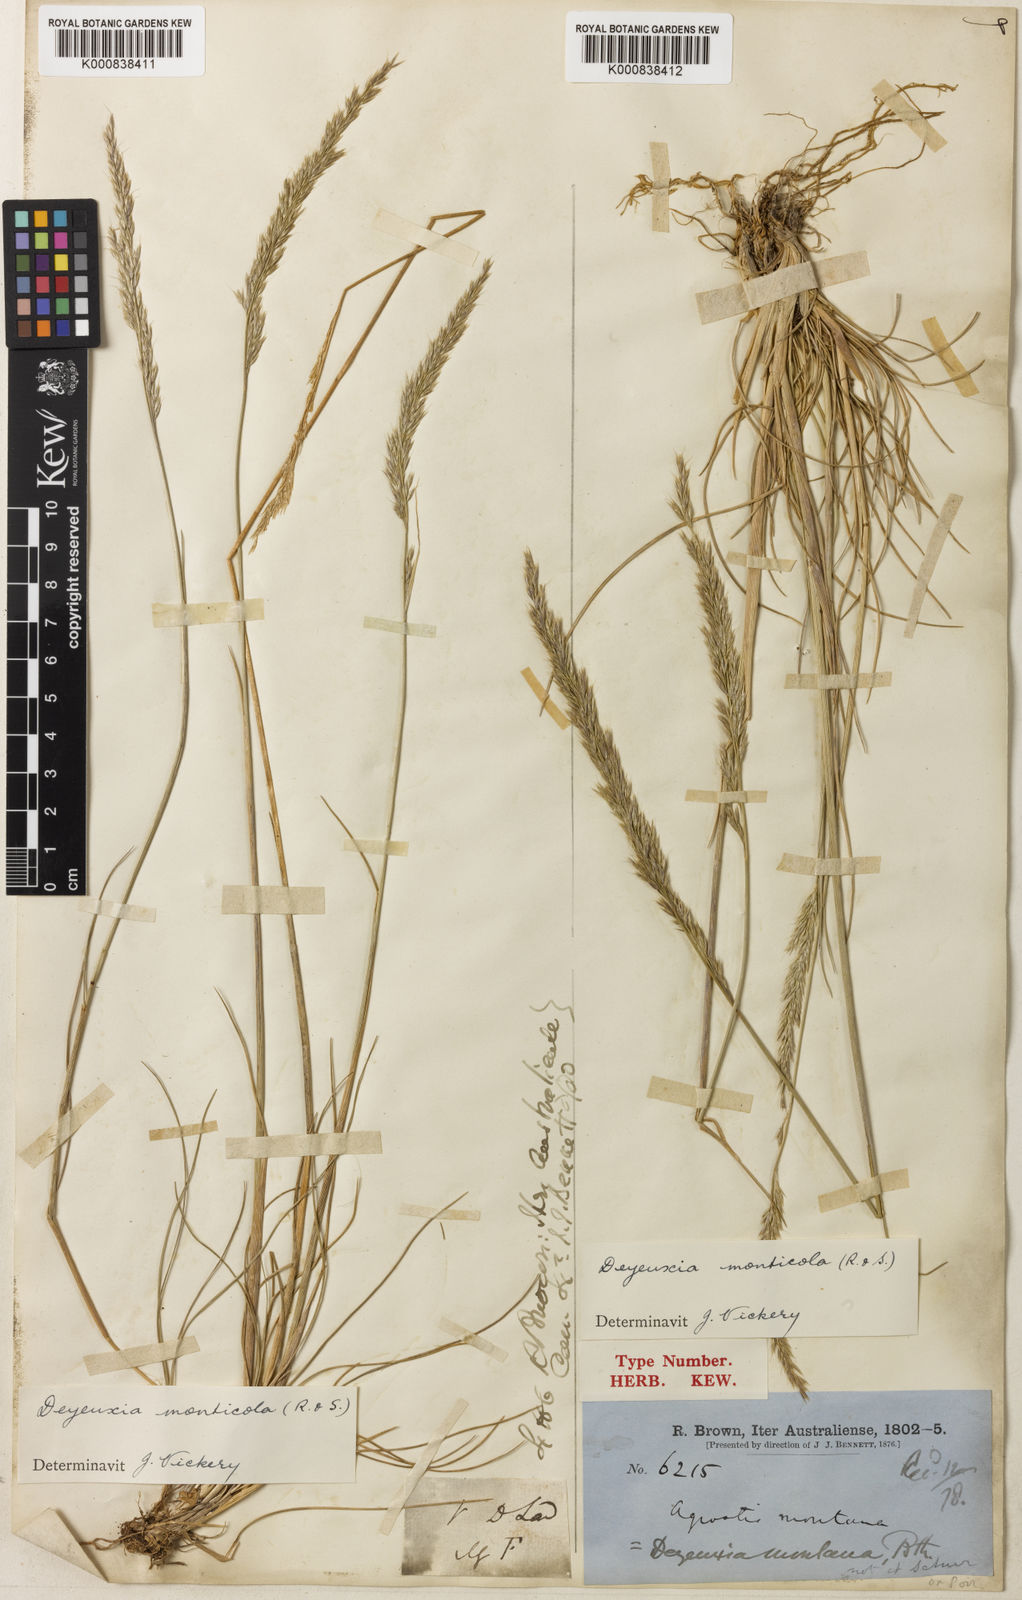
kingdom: Plantae
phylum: Tracheophyta
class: Liliopsida
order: Poales
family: Poaceae
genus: Calamagrostis
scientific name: Calamagrostis arundinacea
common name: Metskastik
